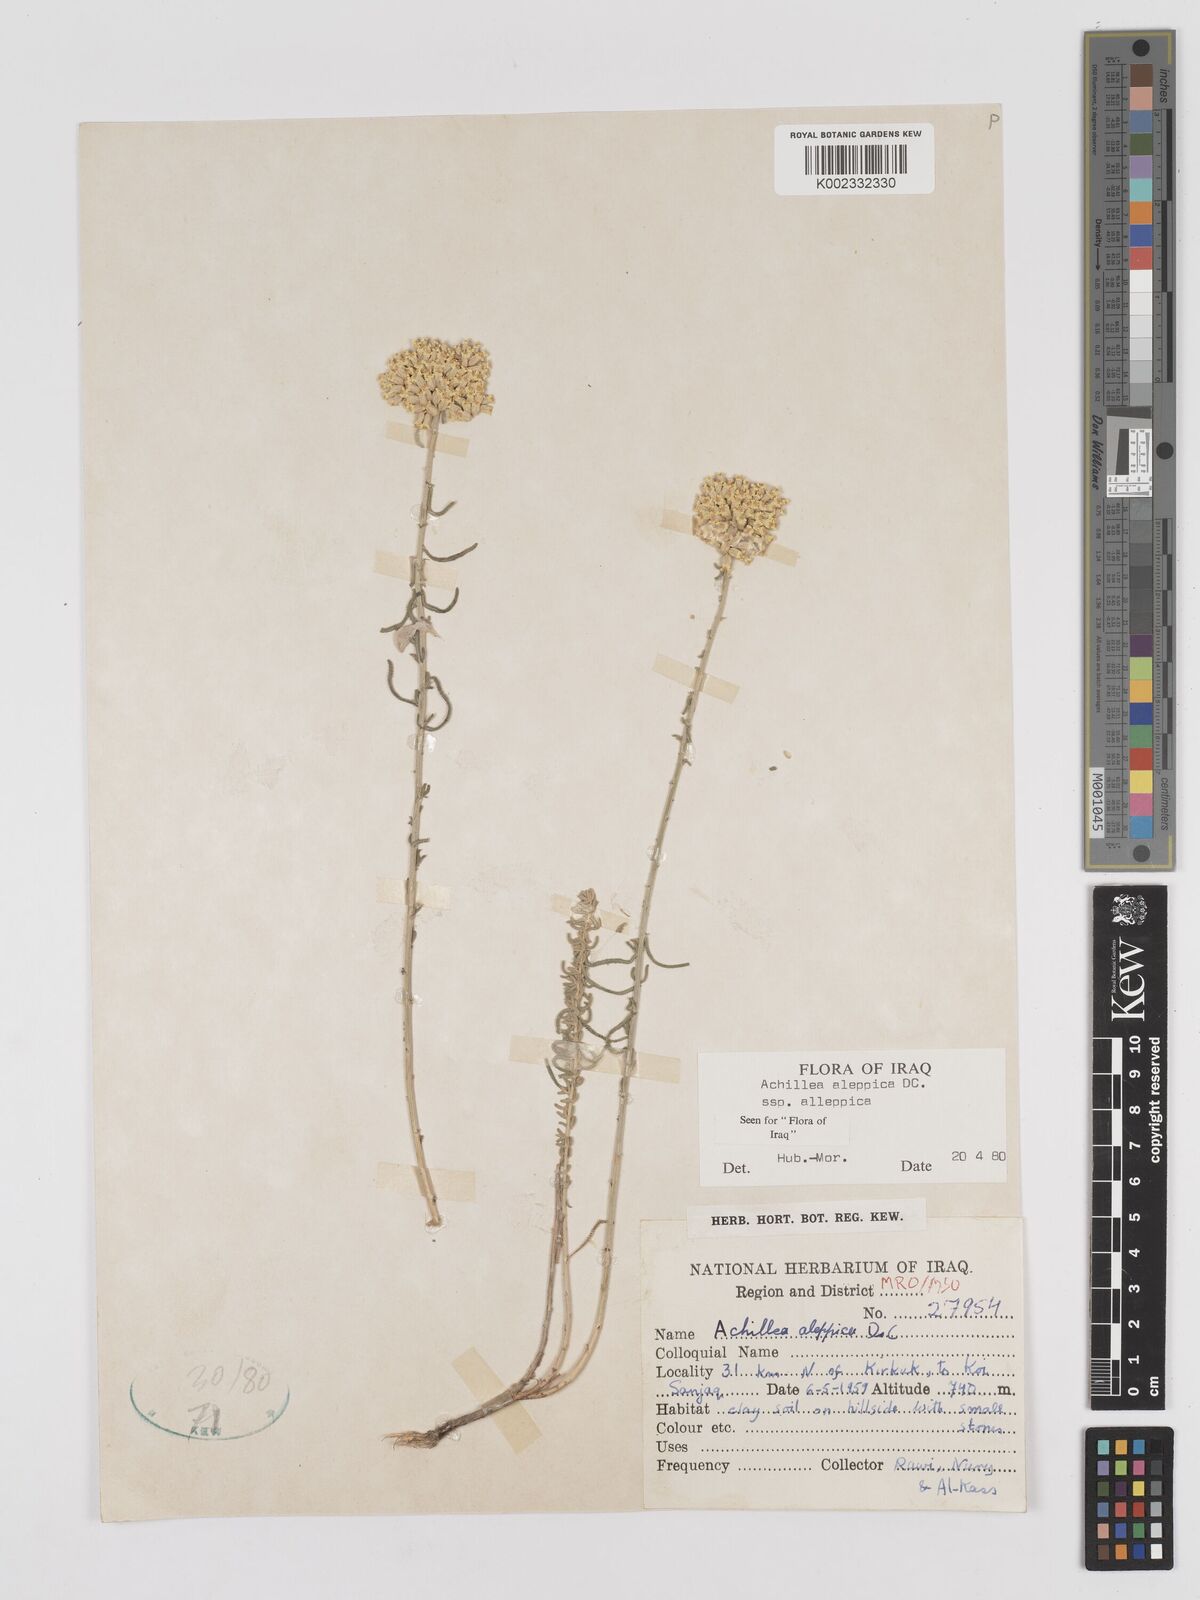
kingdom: Plantae
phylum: Tracheophyta
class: Magnoliopsida
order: Asterales
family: Asteraceae
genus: Achillea
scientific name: Achillea aleppica
